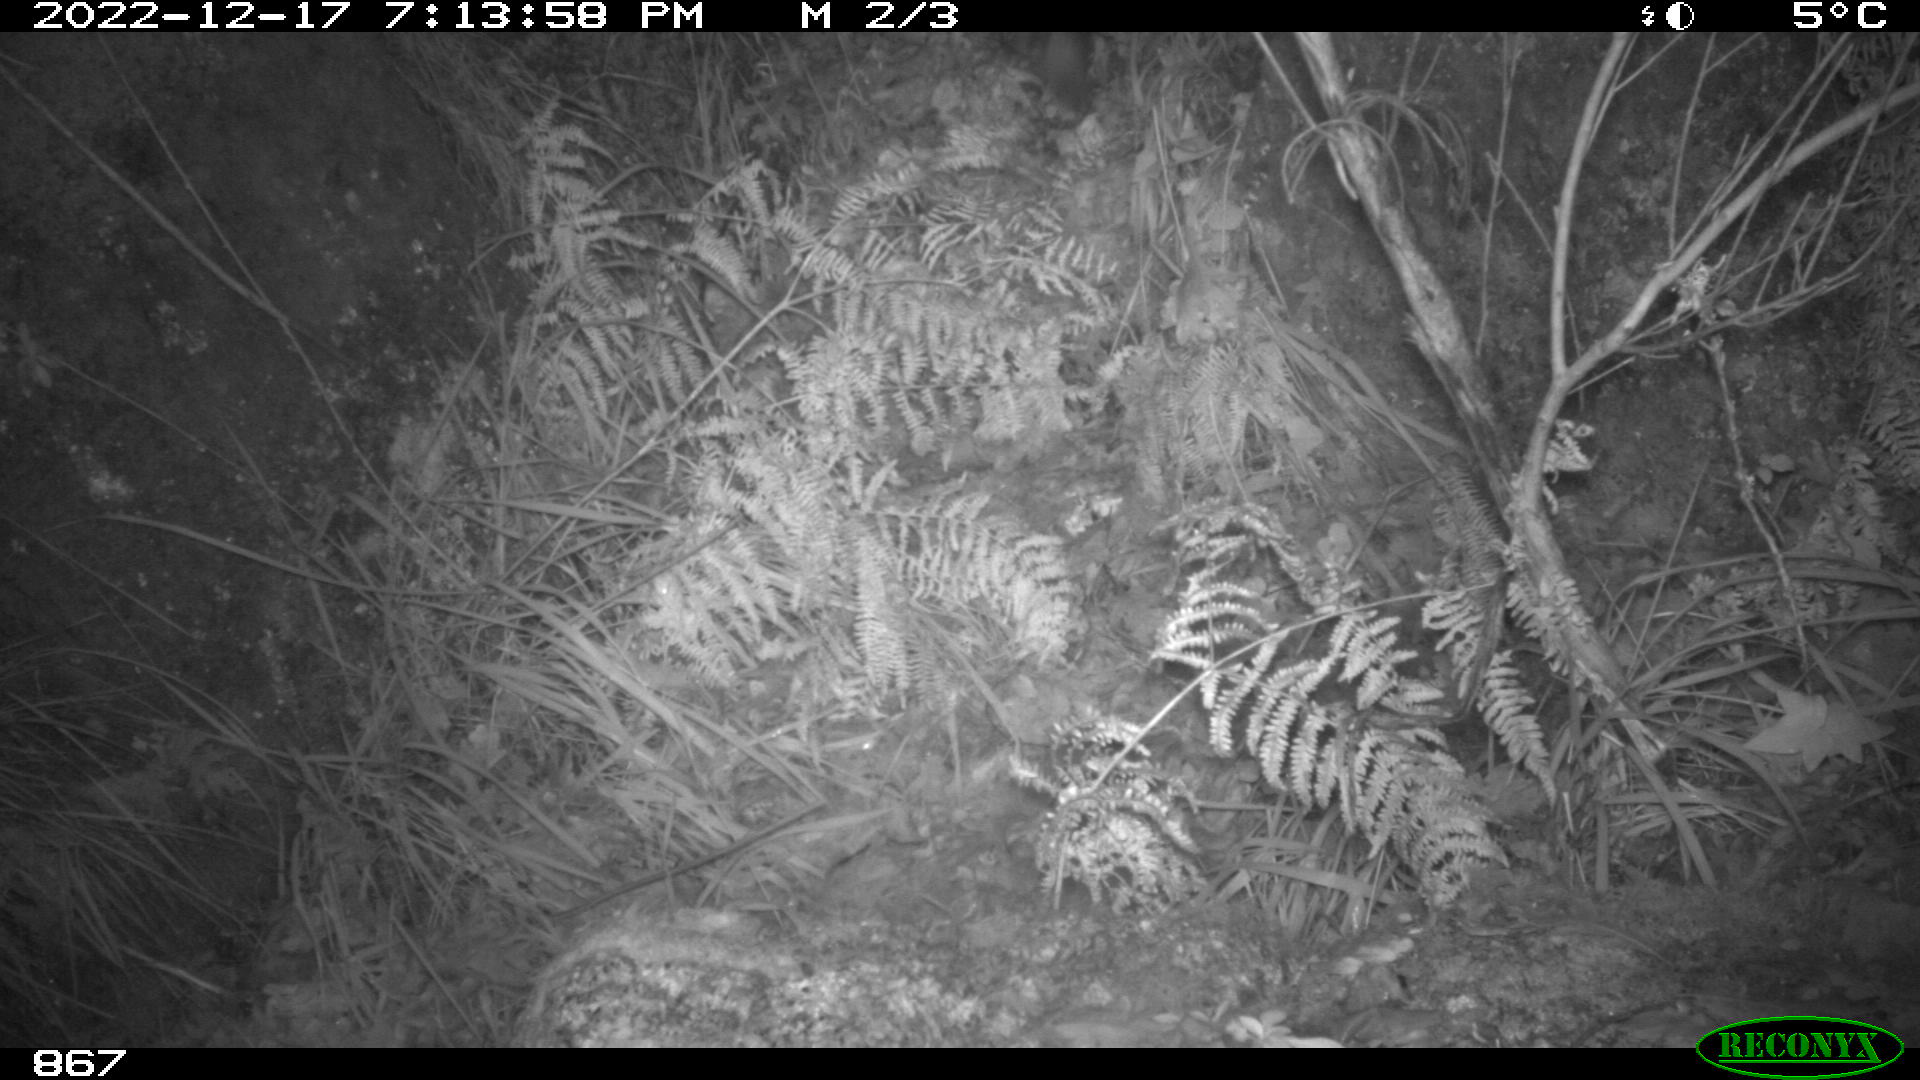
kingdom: Animalia
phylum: Chordata
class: Mammalia
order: Artiodactyla
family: Suidae
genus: Sus
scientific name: Sus scrofa
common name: Wild boar
